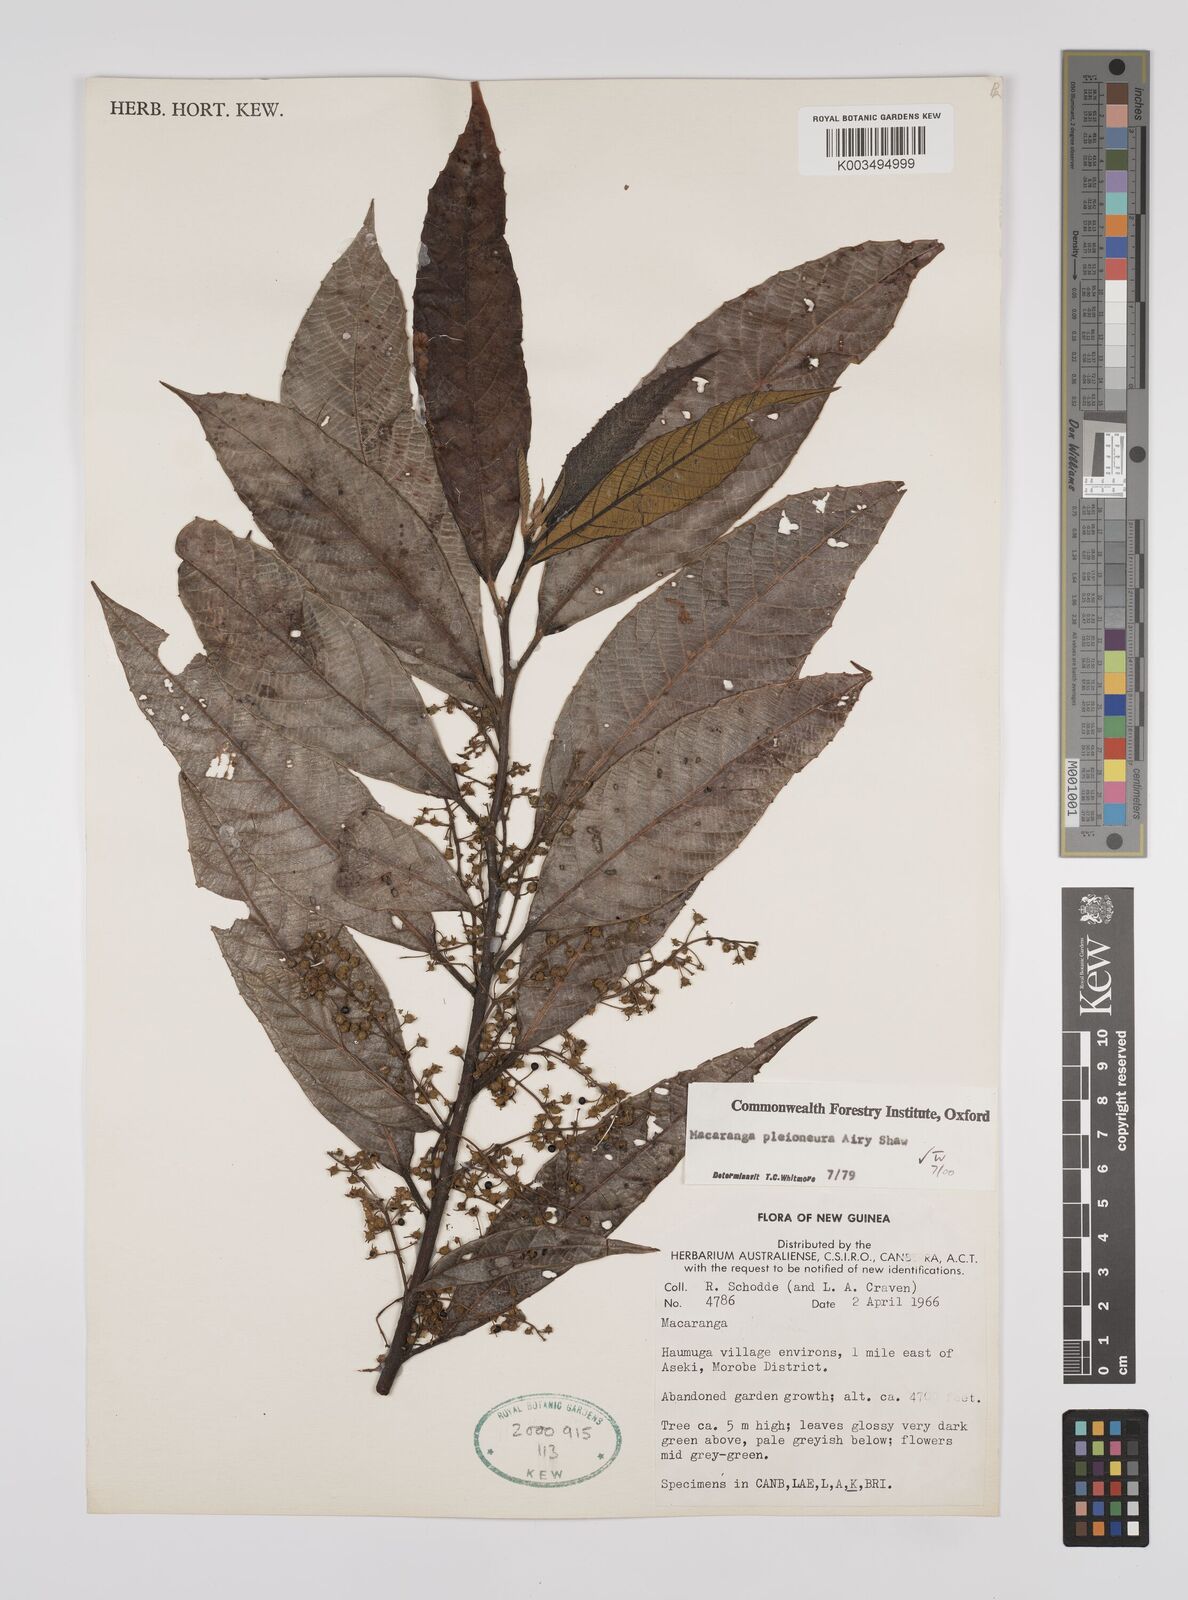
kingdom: Plantae
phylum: Tracheophyta
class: Magnoliopsida
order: Malpighiales
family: Euphorbiaceae
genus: Macaranga
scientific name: Macaranga pleioneura
